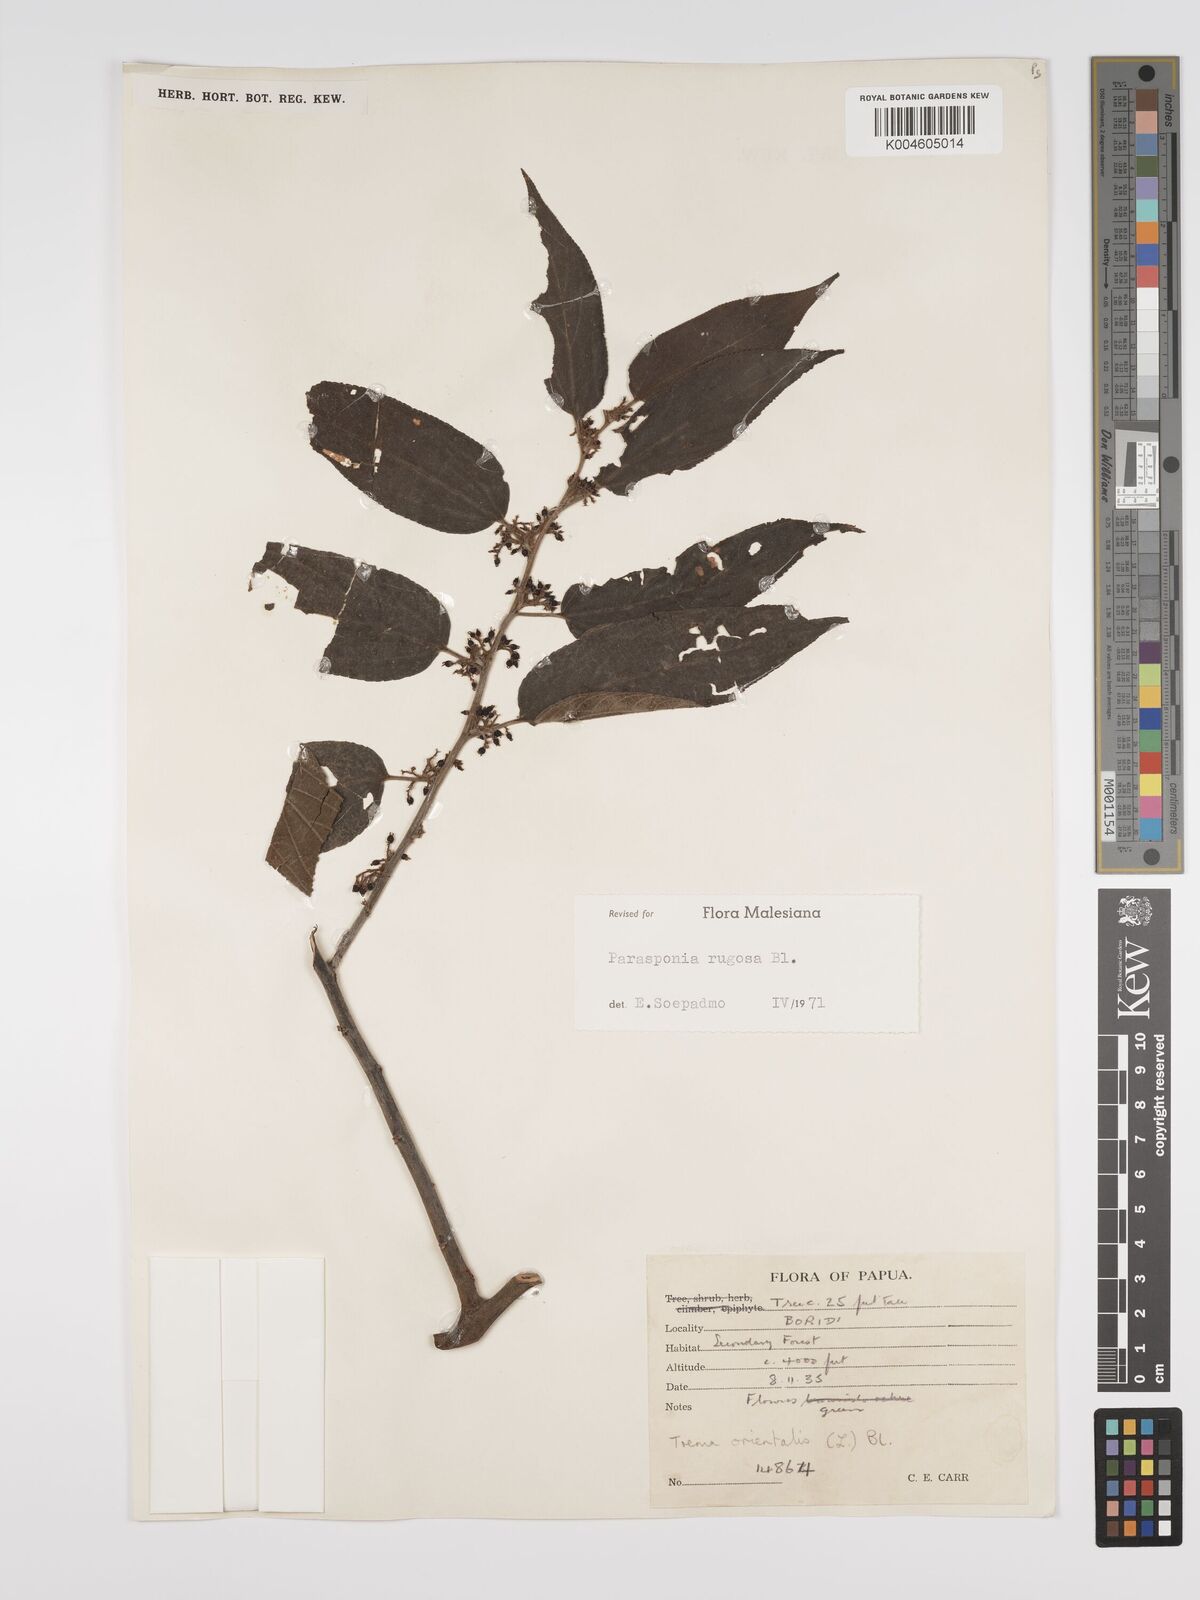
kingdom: Plantae
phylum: Tracheophyta
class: Magnoliopsida
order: Rosales
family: Cannabaceae
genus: Trema
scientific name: Trema eurhynchum
